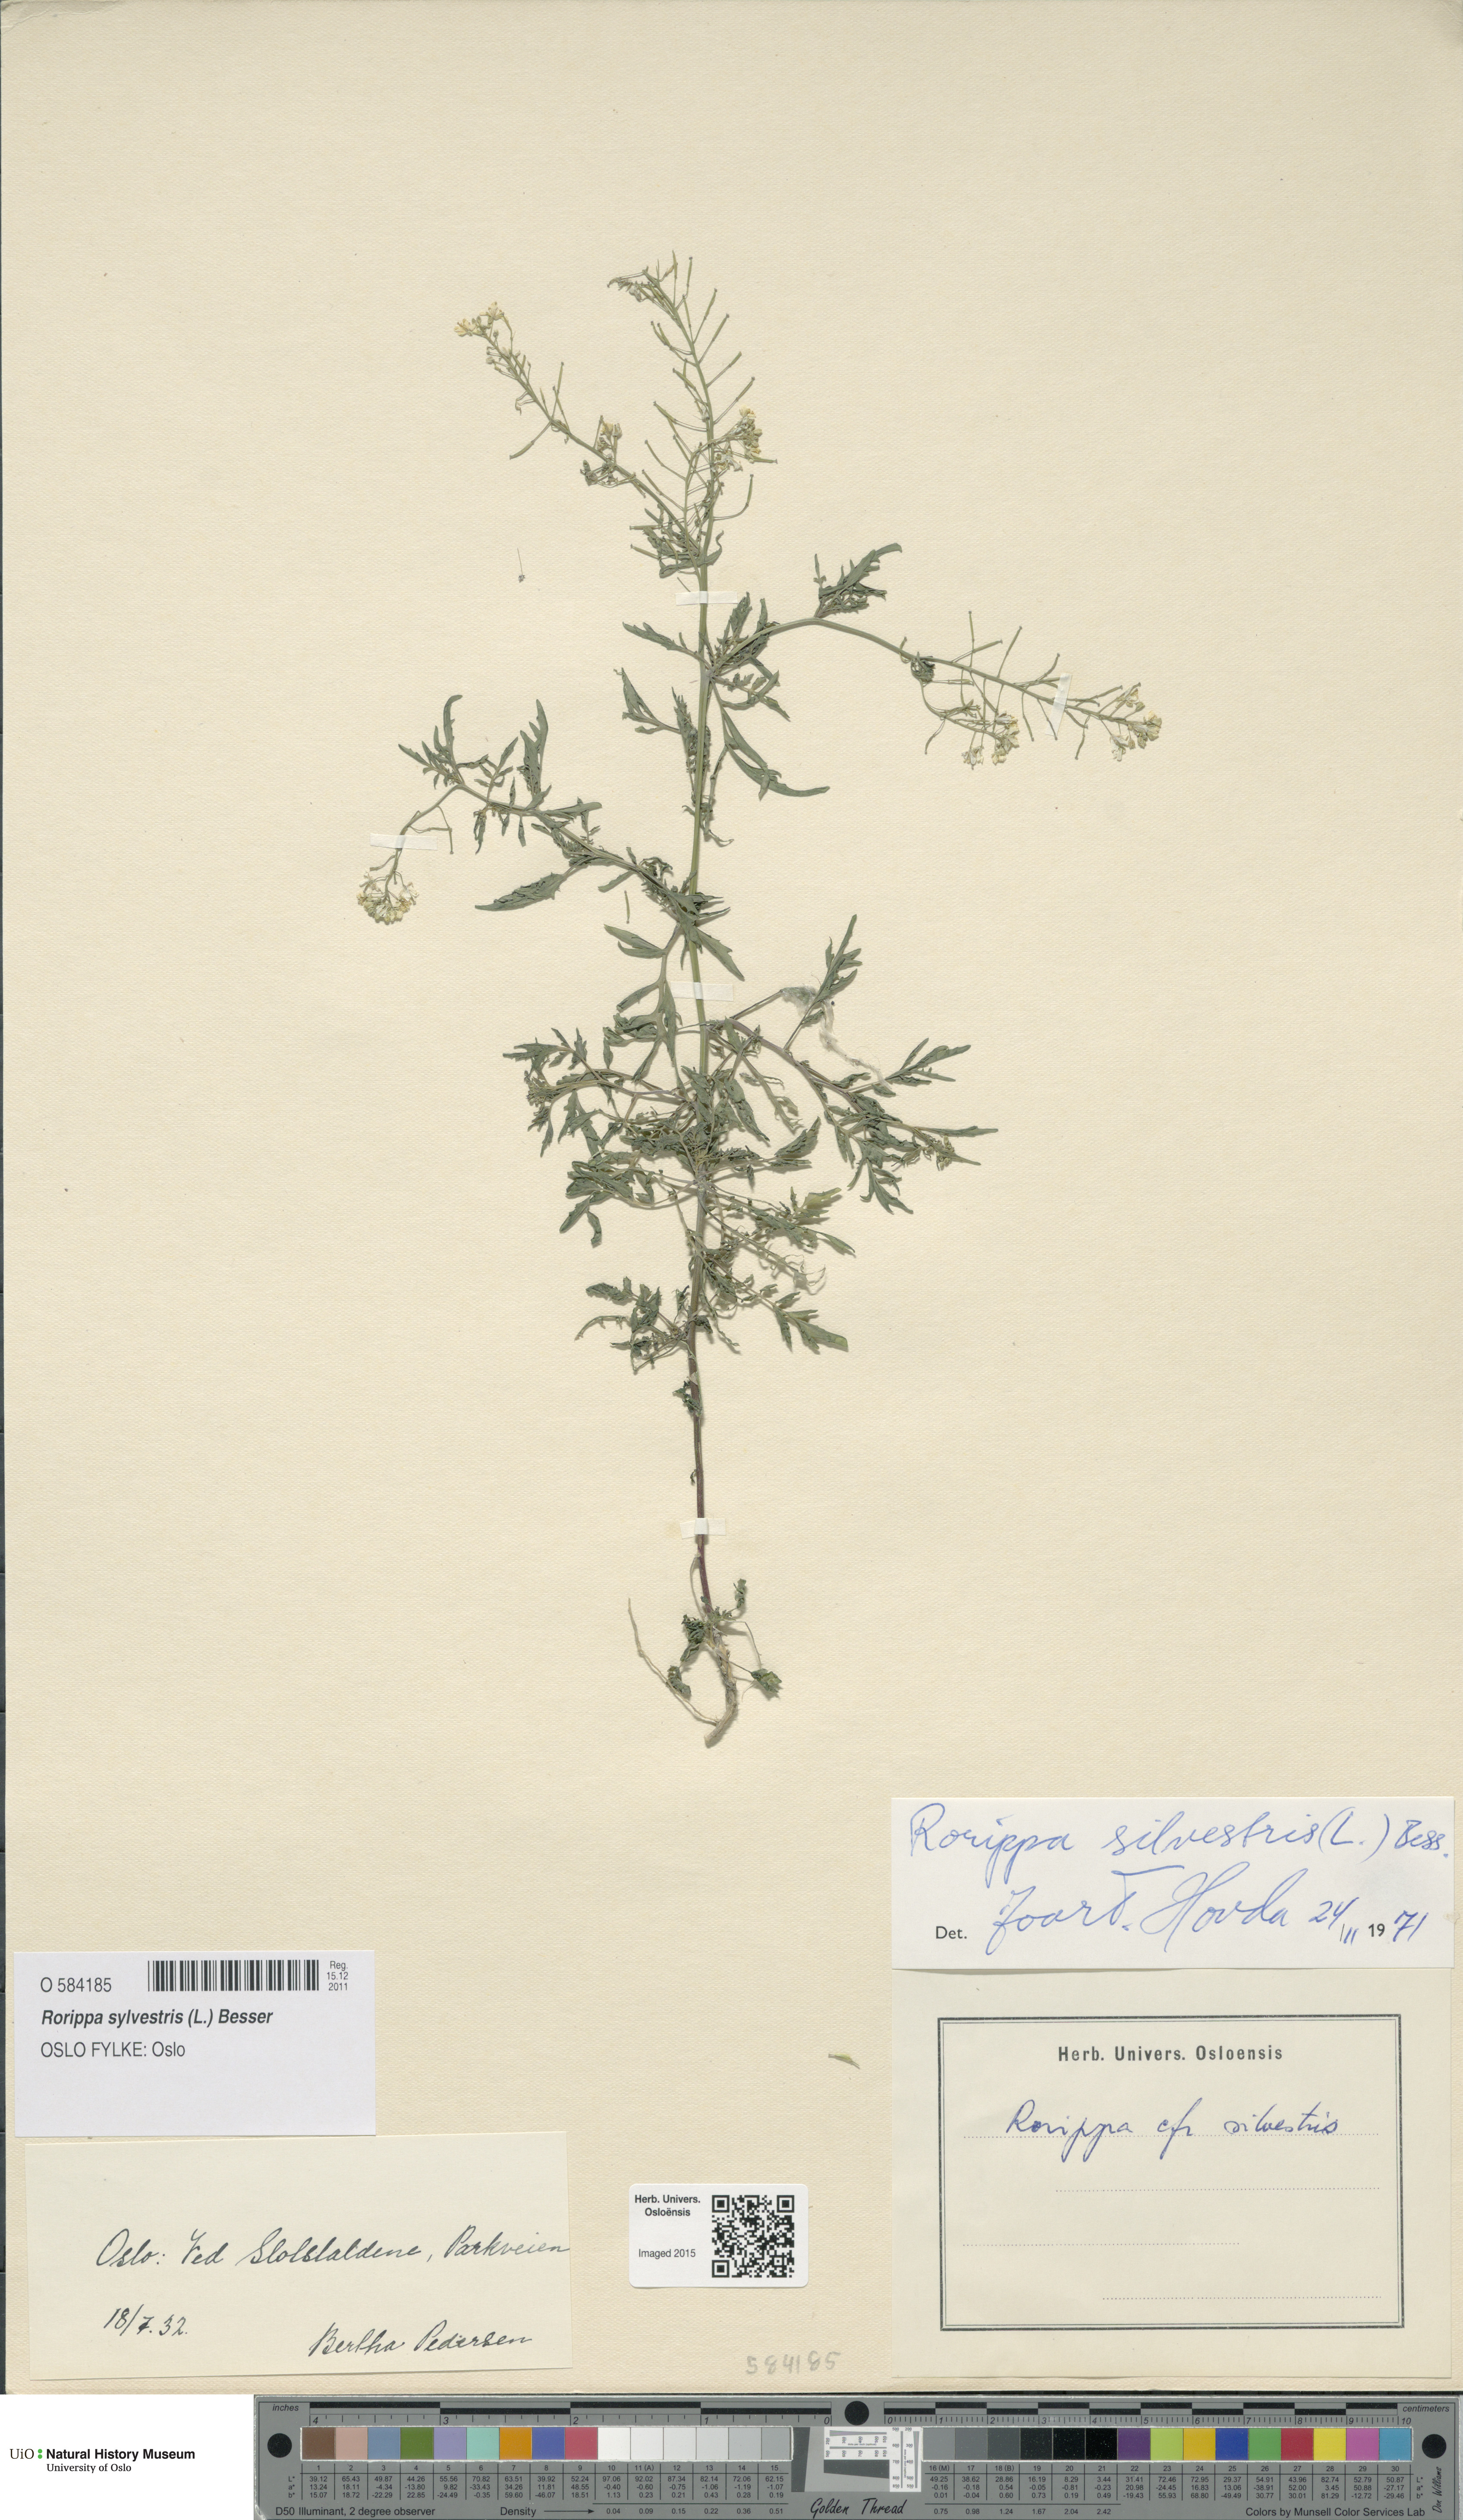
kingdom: Plantae
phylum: Tracheophyta
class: Magnoliopsida
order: Brassicales
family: Brassicaceae
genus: Rorippa
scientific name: Rorippa sylvestris
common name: Creeping yellowcress
